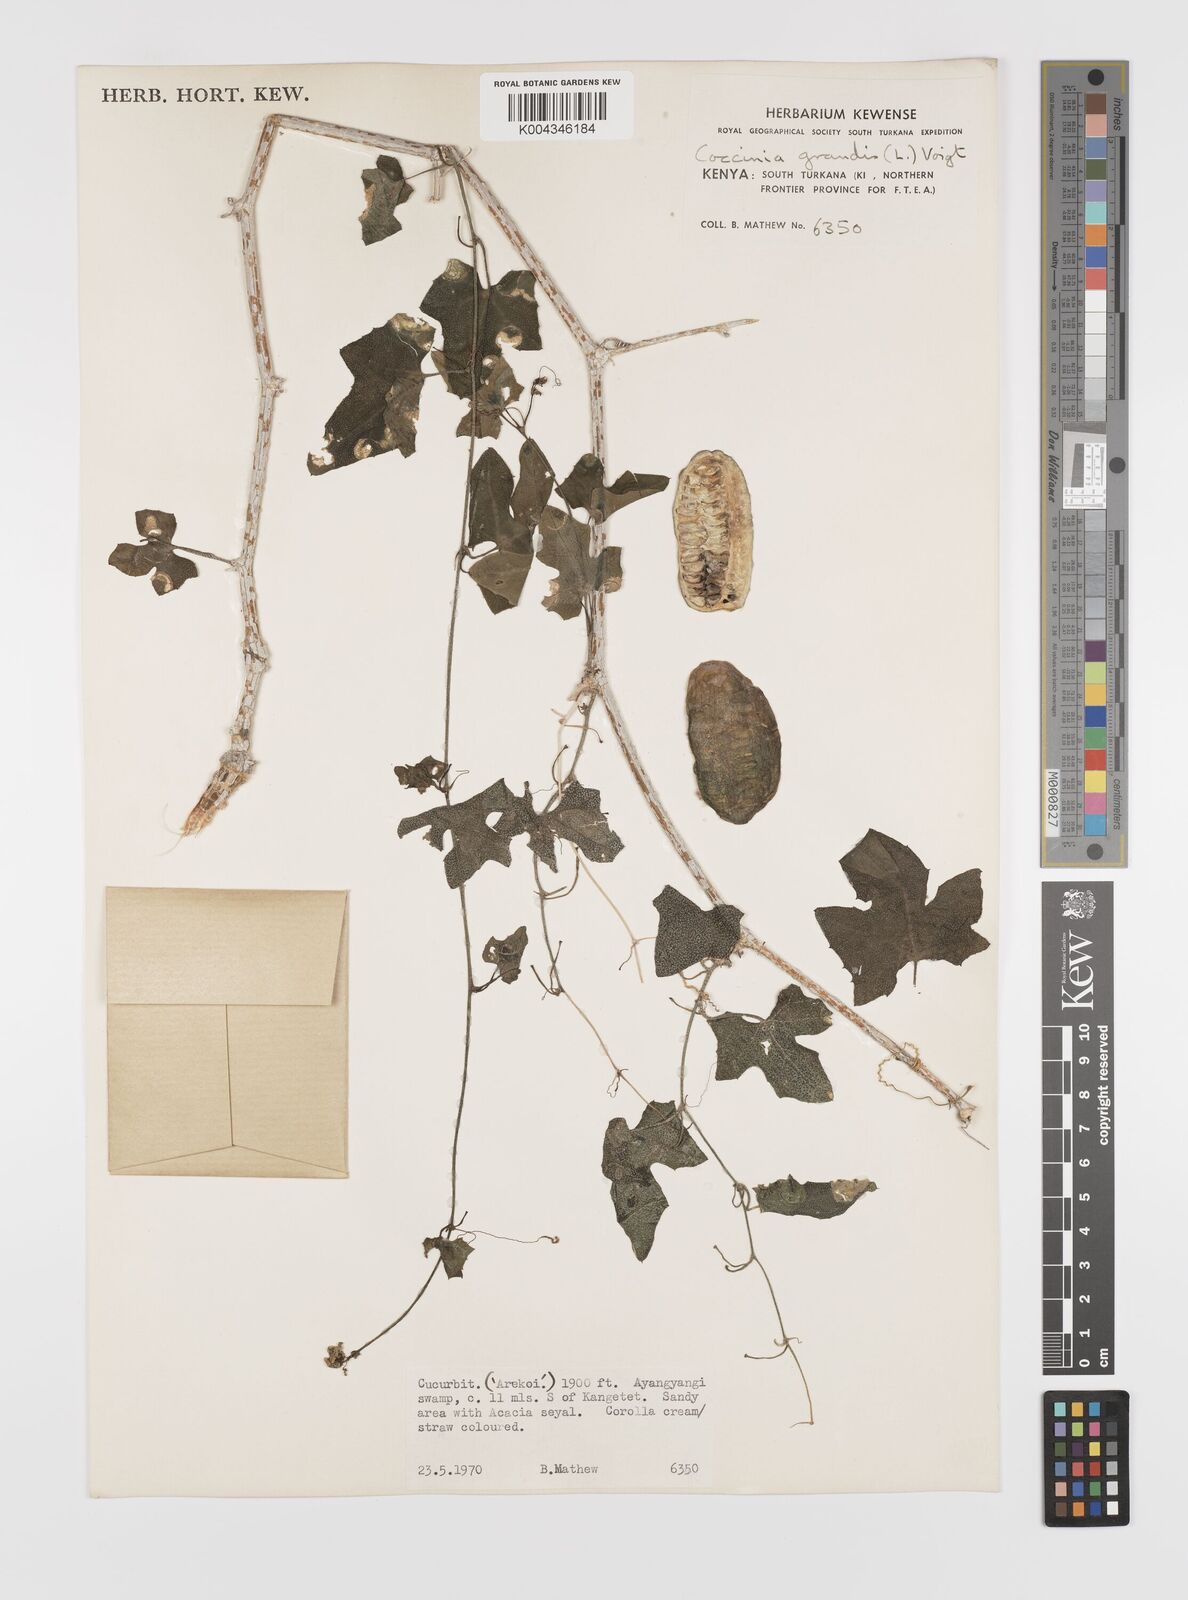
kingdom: Plantae
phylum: Tracheophyta
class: Magnoliopsida
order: Cucurbitales
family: Cucurbitaceae
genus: Coccinia
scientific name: Coccinia grandis
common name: Ivy gourd
